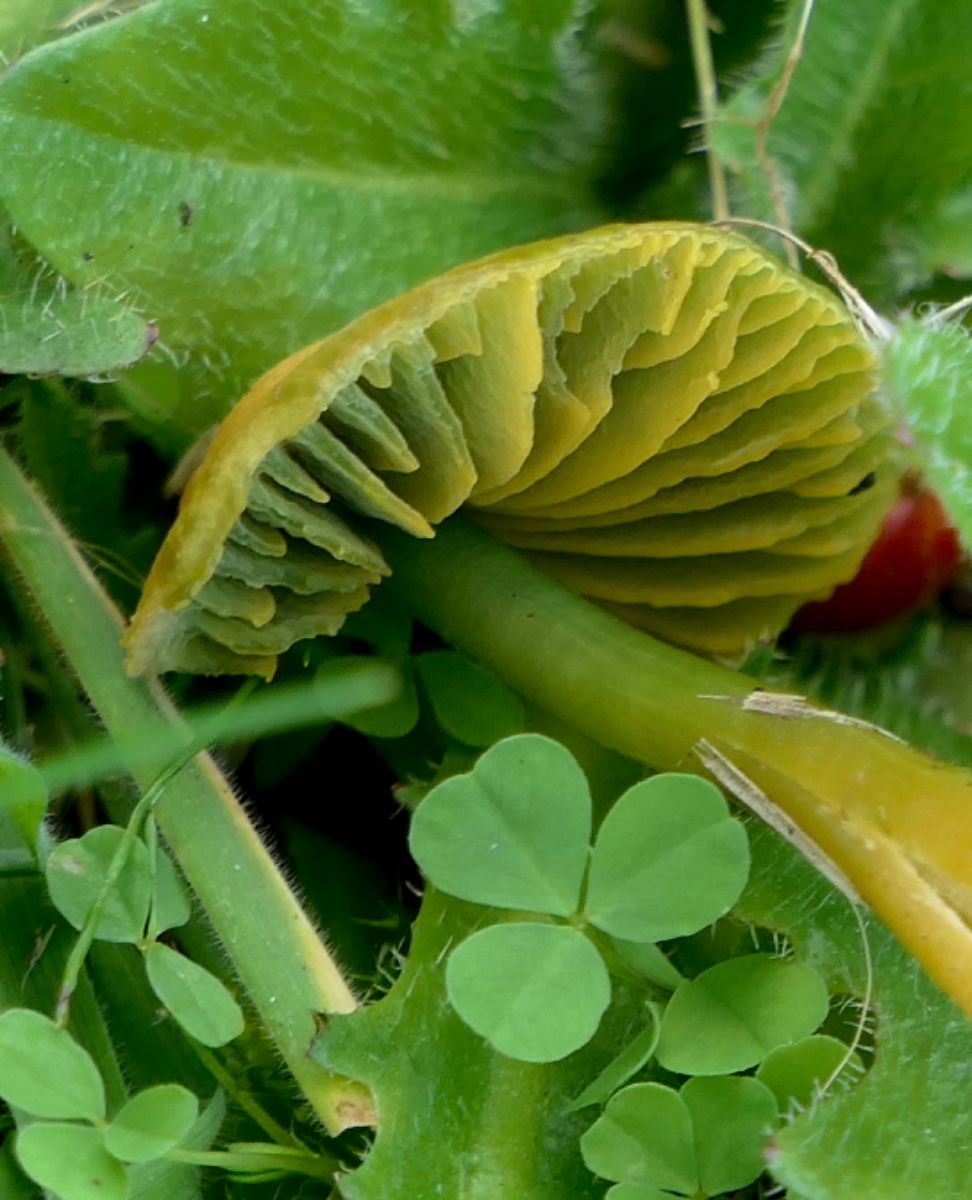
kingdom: Fungi
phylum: Basidiomycota
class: Agaricomycetes
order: Agaricales
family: Hygrophoraceae
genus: Gliophorus
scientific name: Gliophorus psittacinus
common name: papegøje-vokshat
